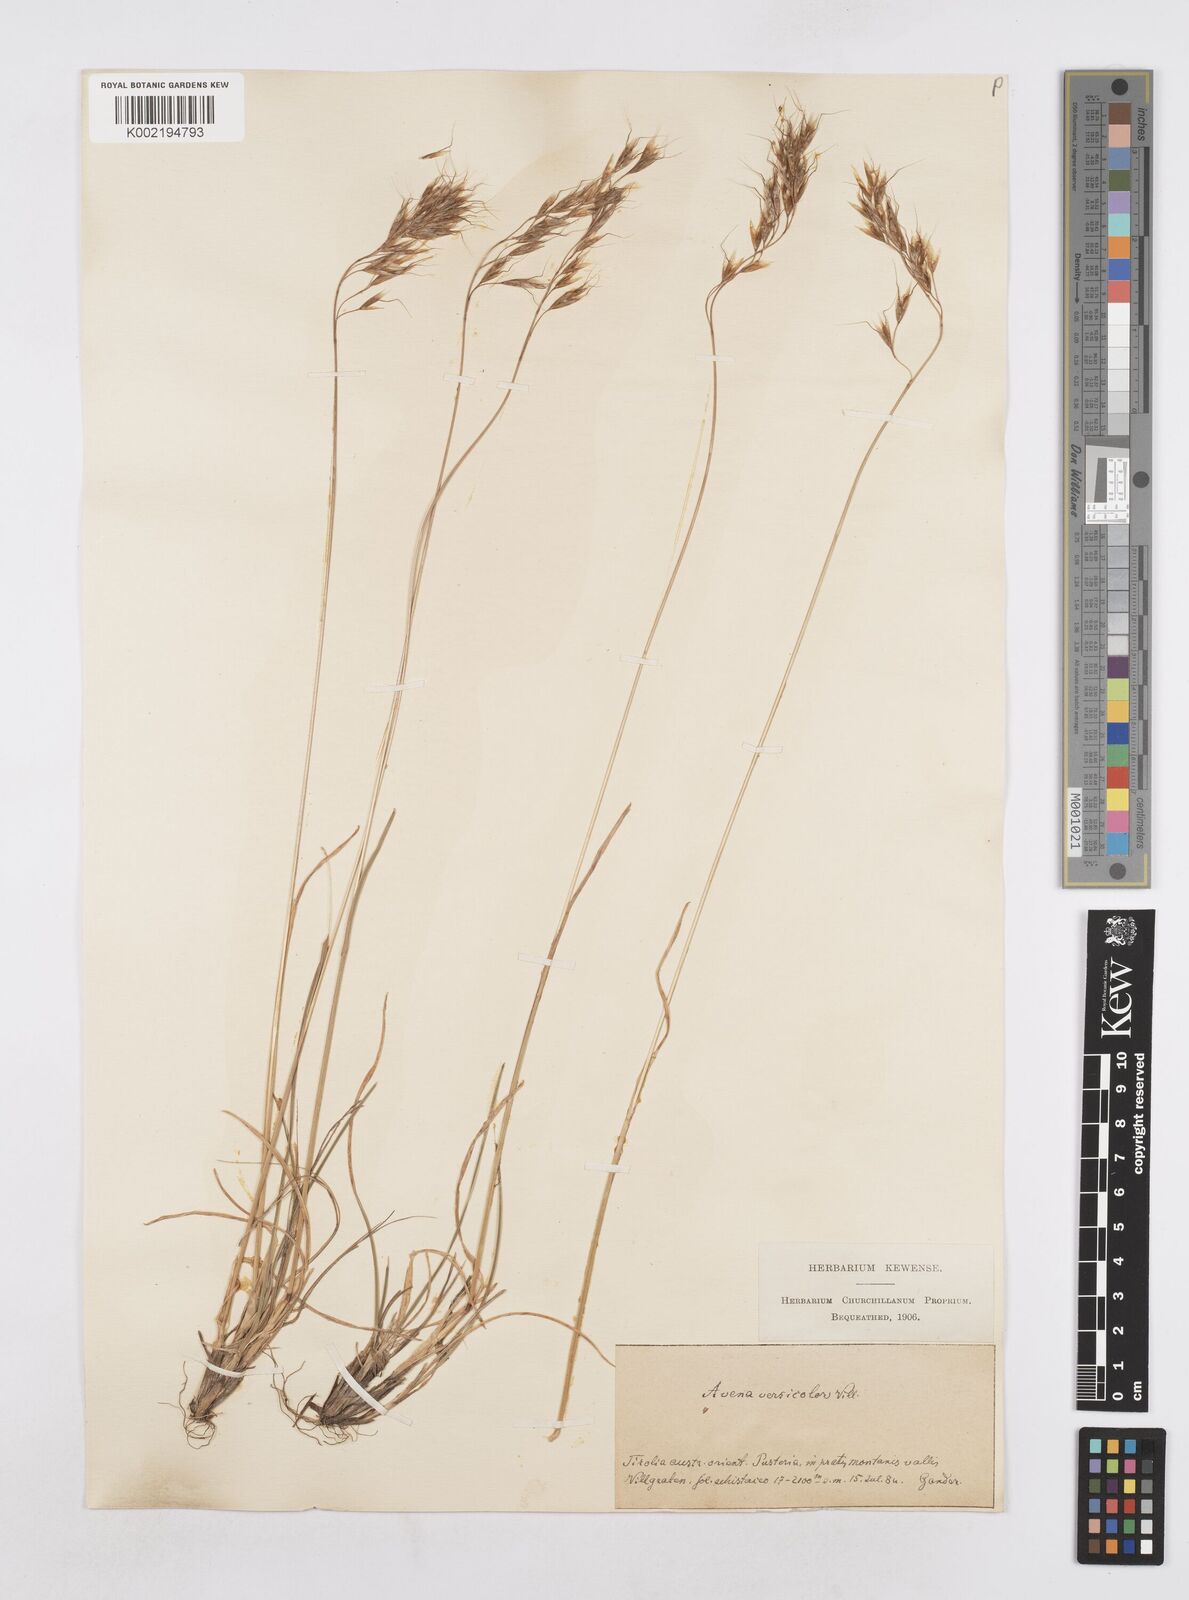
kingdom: Plantae
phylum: Tracheophyta
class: Liliopsida
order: Poales
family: Poaceae
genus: Helictochloa
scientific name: Helictochloa versicolor
